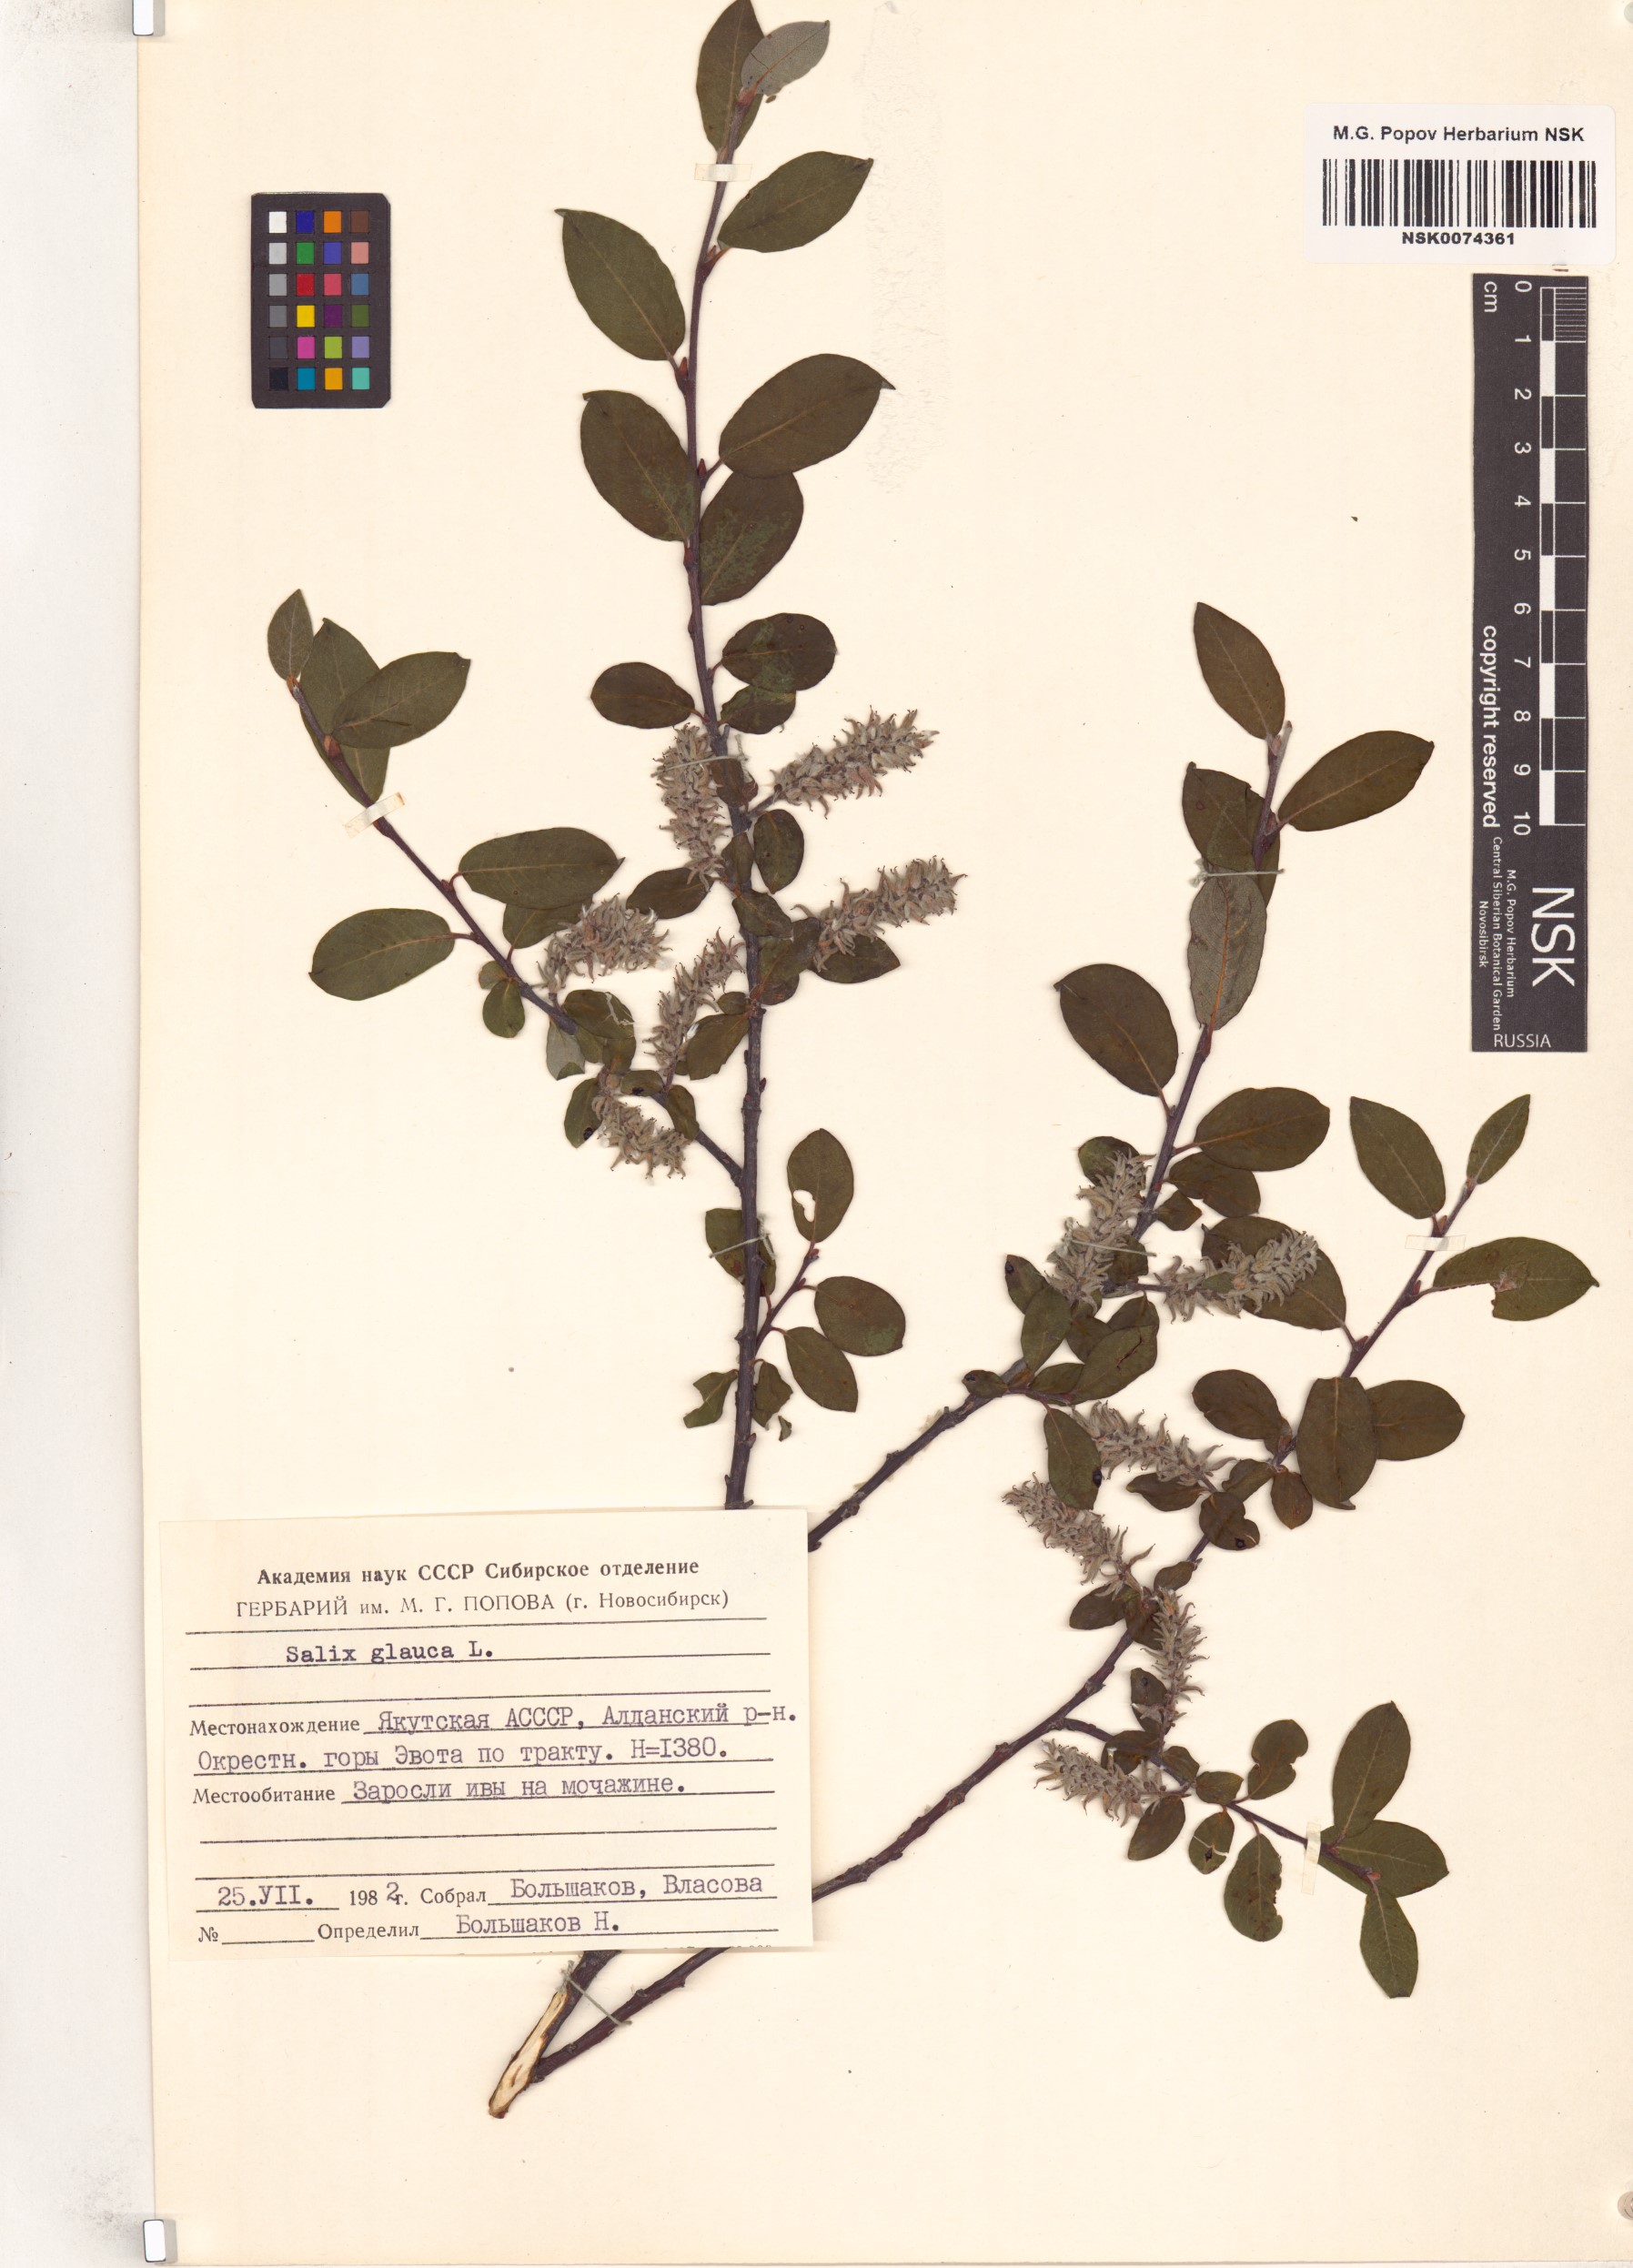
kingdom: Plantae
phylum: Tracheophyta
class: Magnoliopsida
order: Malpighiales
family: Salicaceae
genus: Salix
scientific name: Salix glauca
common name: Glaucous willow
